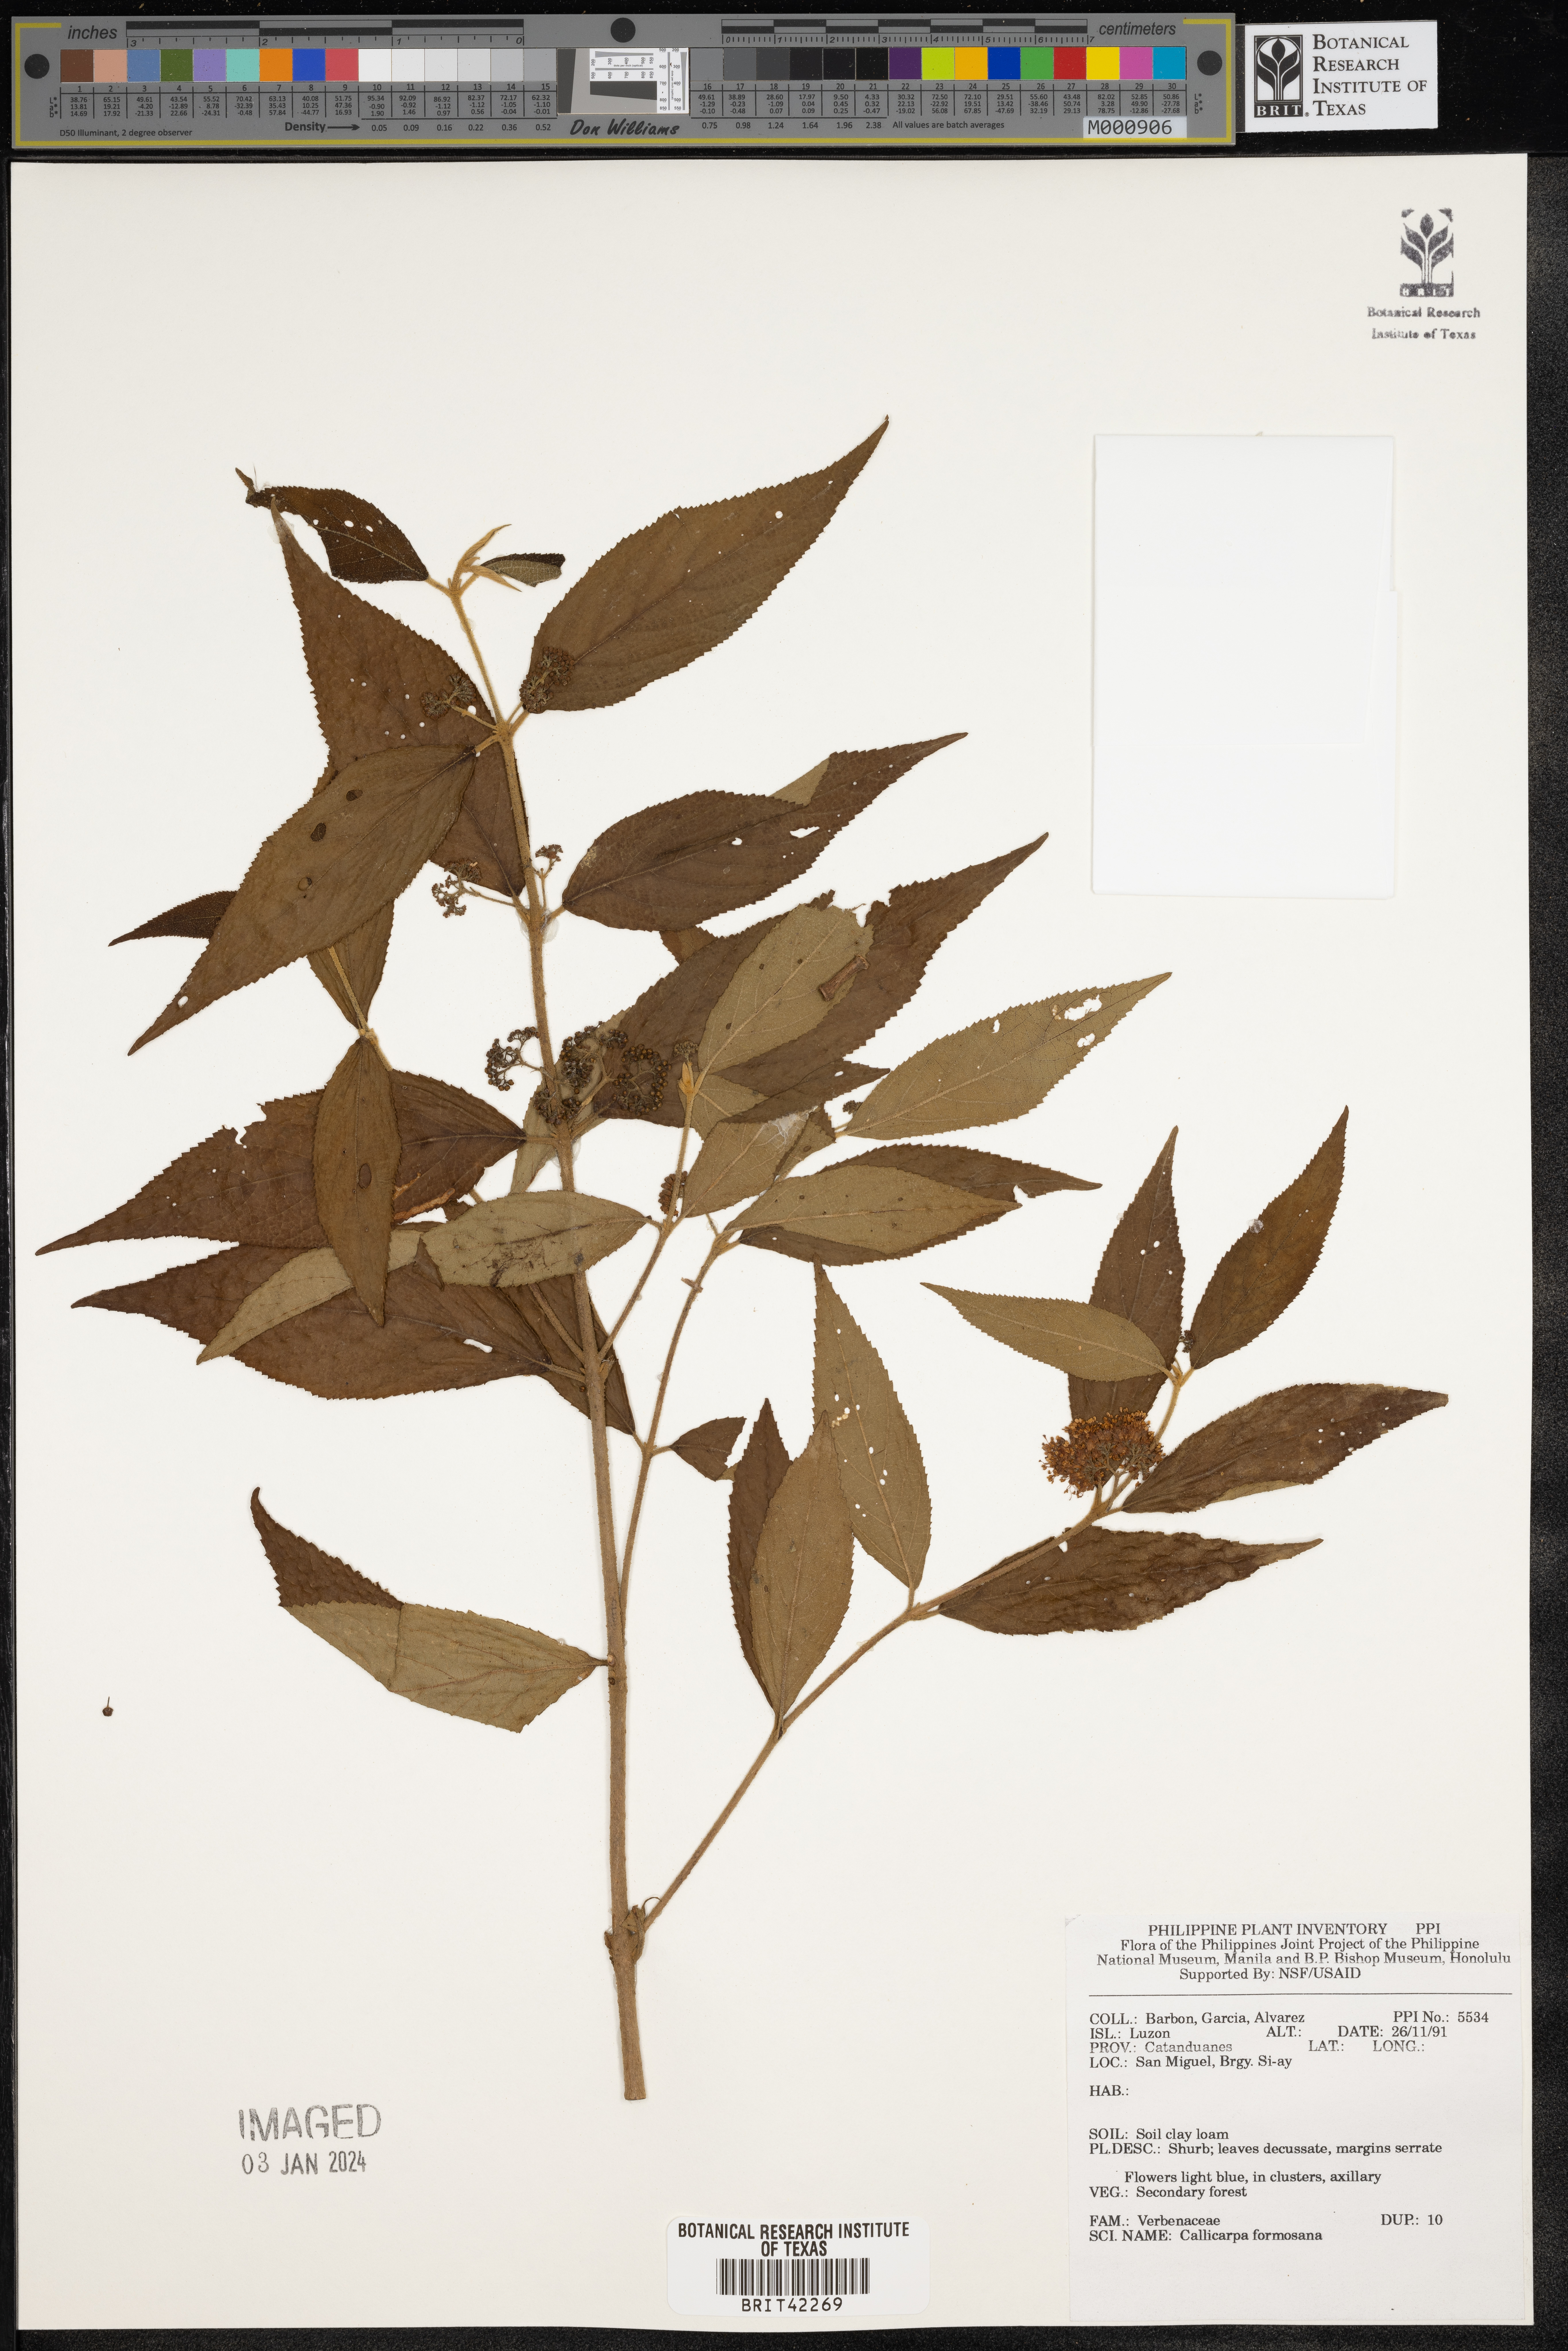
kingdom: Plantae
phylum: Tracheophyta
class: Magnoliopsida
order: Lamiales
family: Lamiaceae
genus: Callicarpa
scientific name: Callicarpa pedunculata
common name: Velvetleaf
